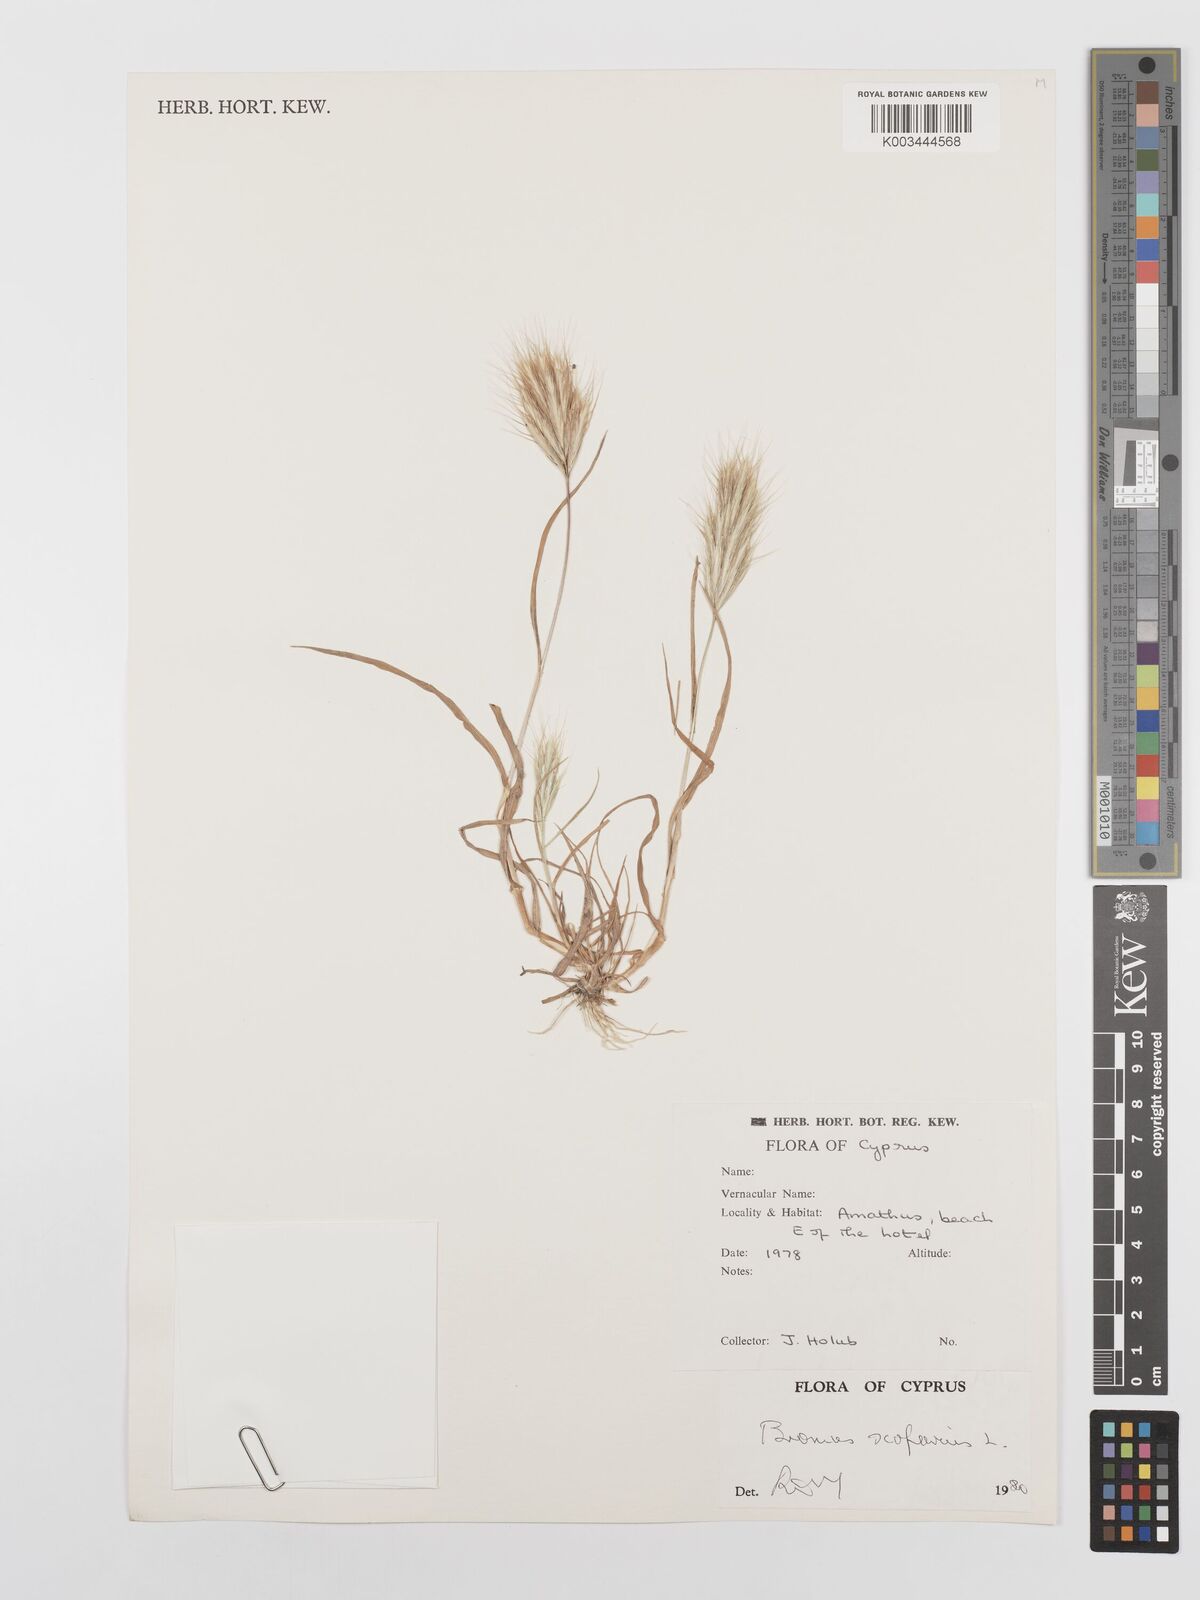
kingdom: Plantae
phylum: Tracheophyta
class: Liliopsida
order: Poales
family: Poaceae
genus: Bromus
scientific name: Bromus scoparius
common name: Broom brome
